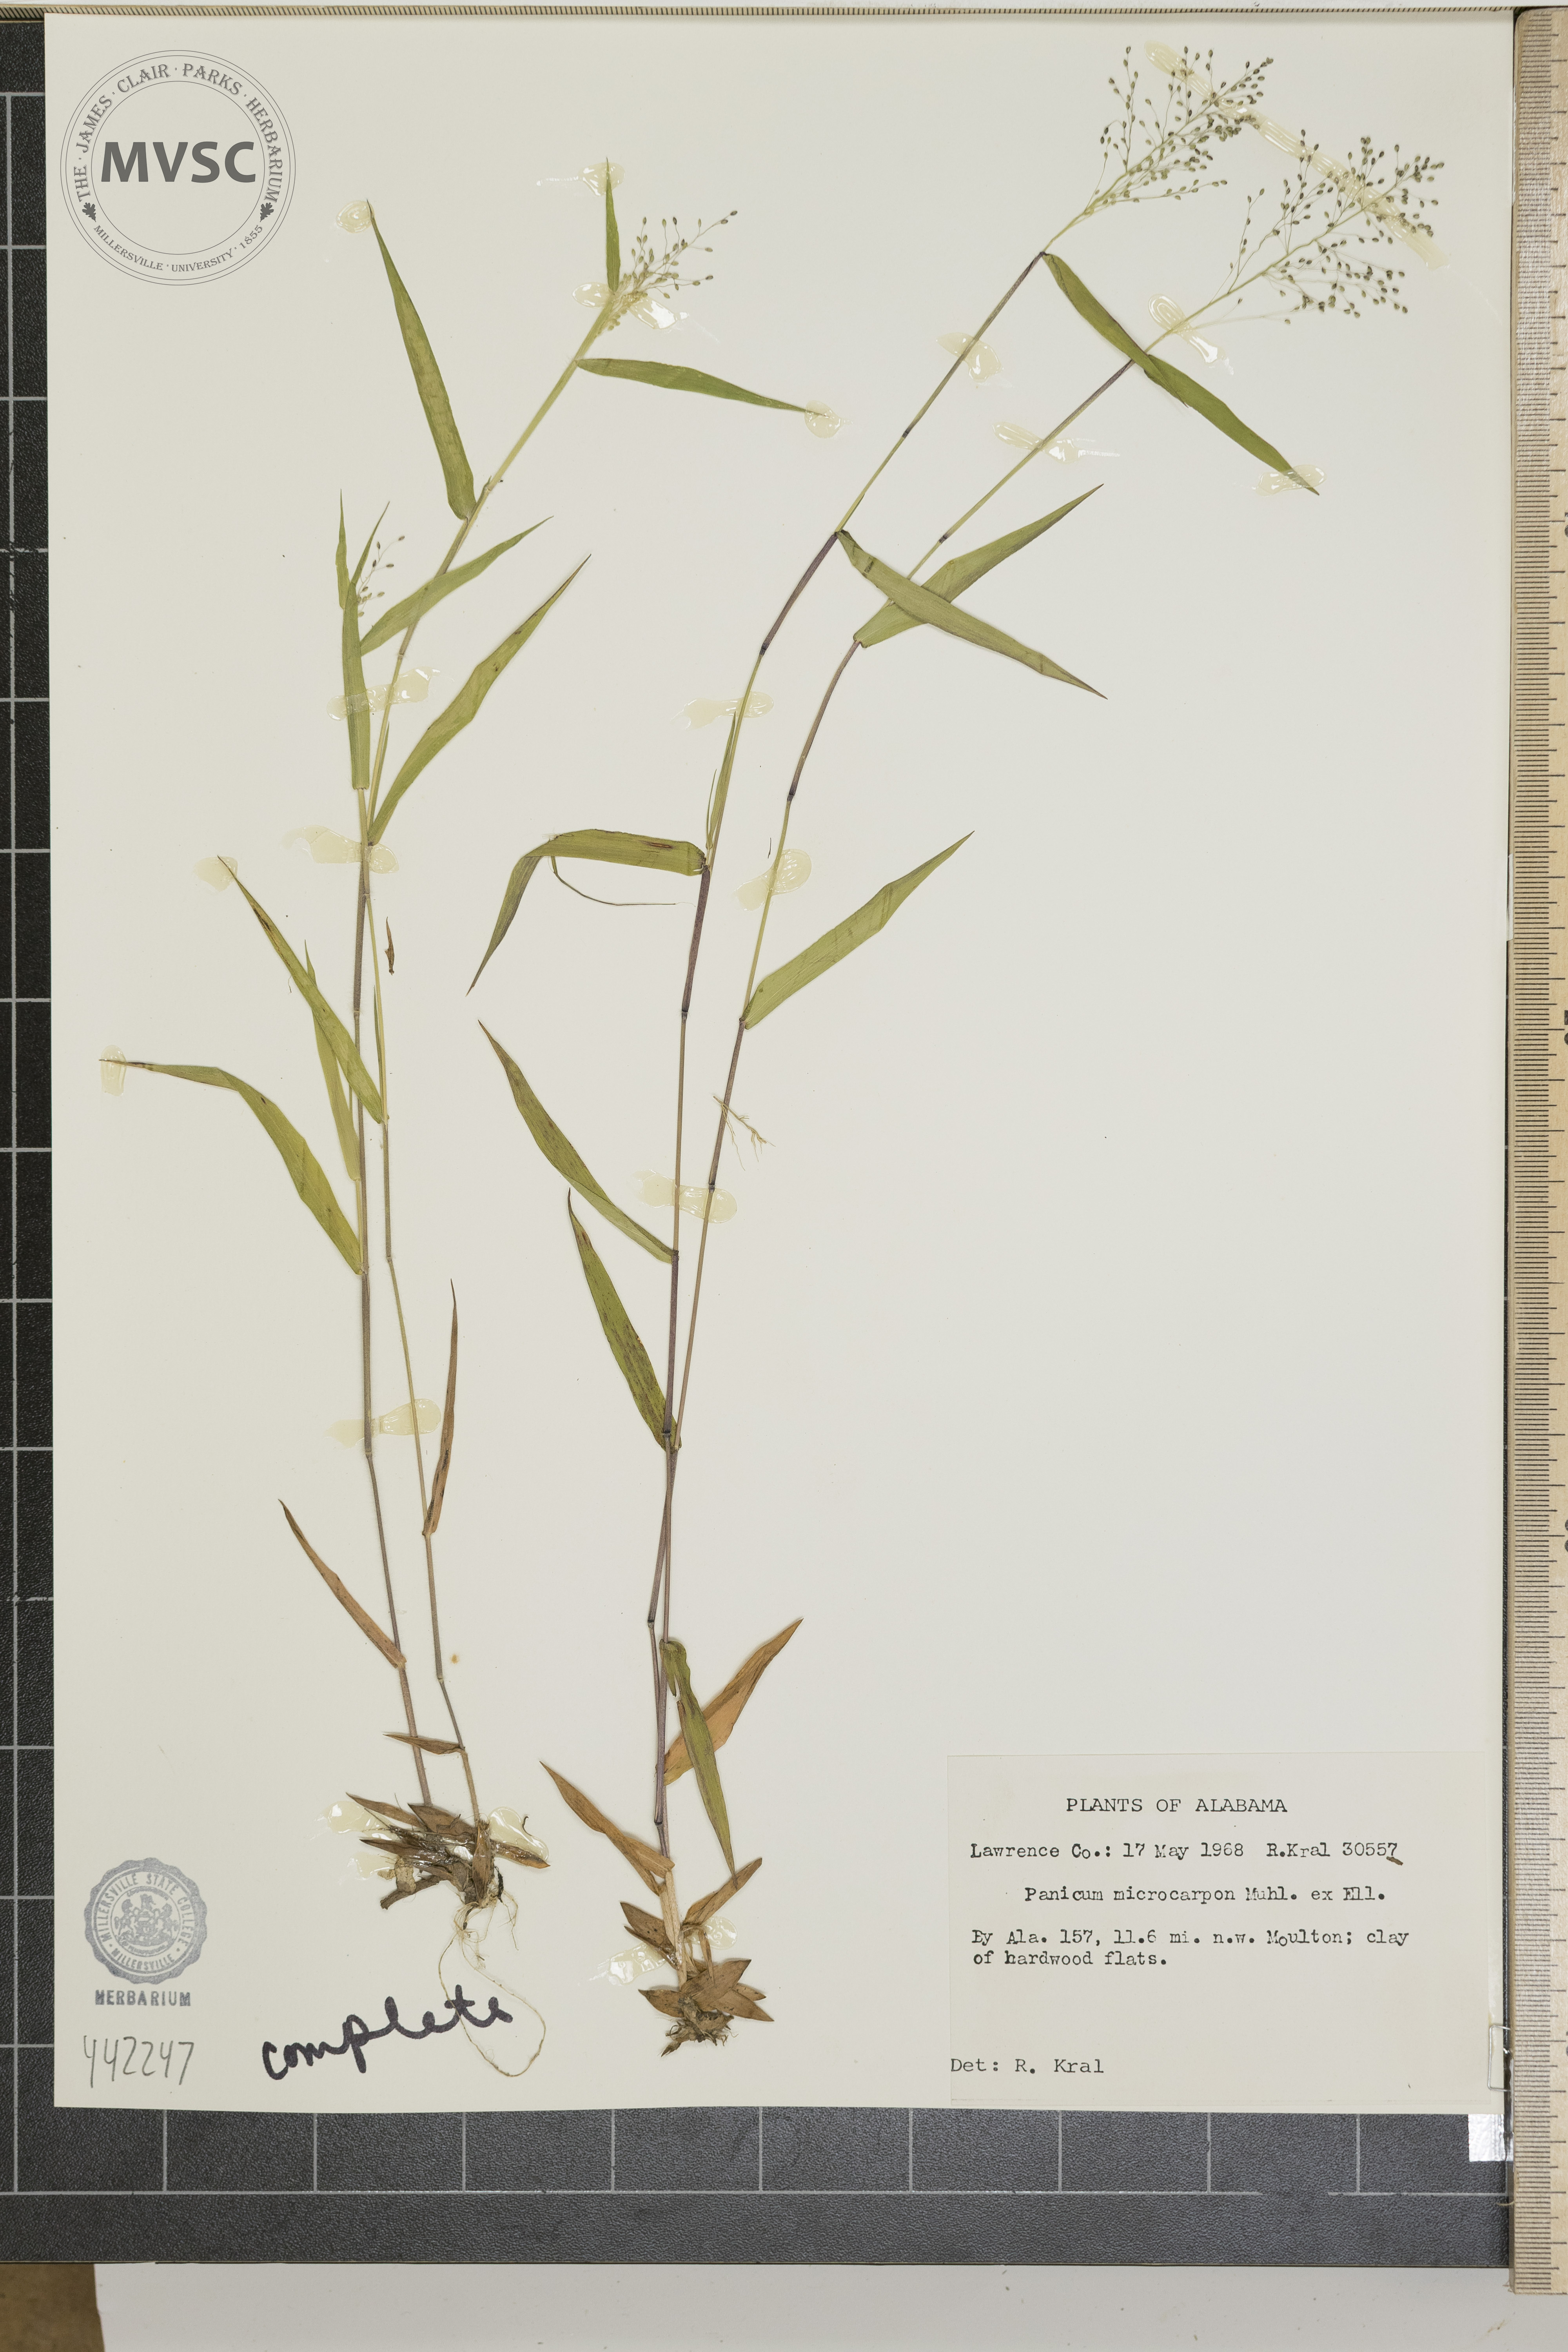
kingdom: Plantae
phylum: Tracheophyta
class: Liliopsida
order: Poales
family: Poaceae
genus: Dichanthelium
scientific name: Dichanthelium microcarpon
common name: Small-fruited witchgrass
